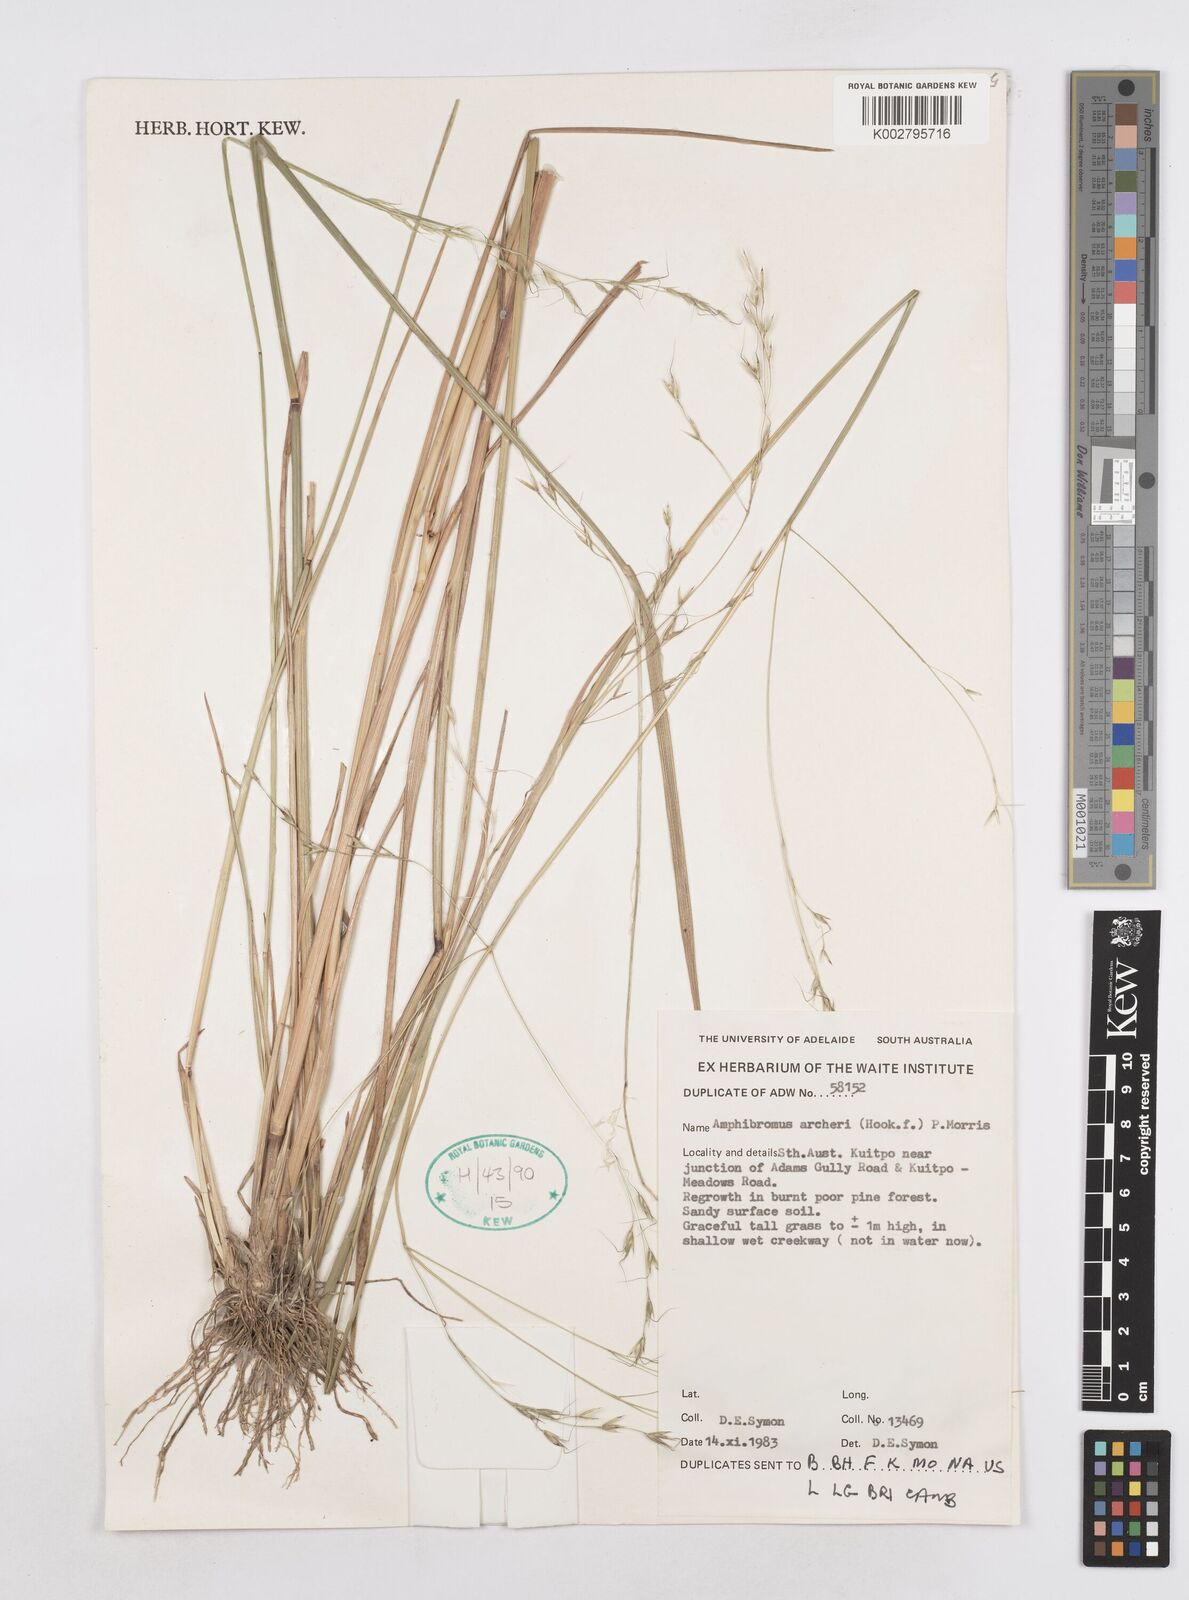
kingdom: Plantae
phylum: Tracheophyta
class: Liliopsida
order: Poales
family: Poaceae
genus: Helictotrichon
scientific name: Helictotrichon
